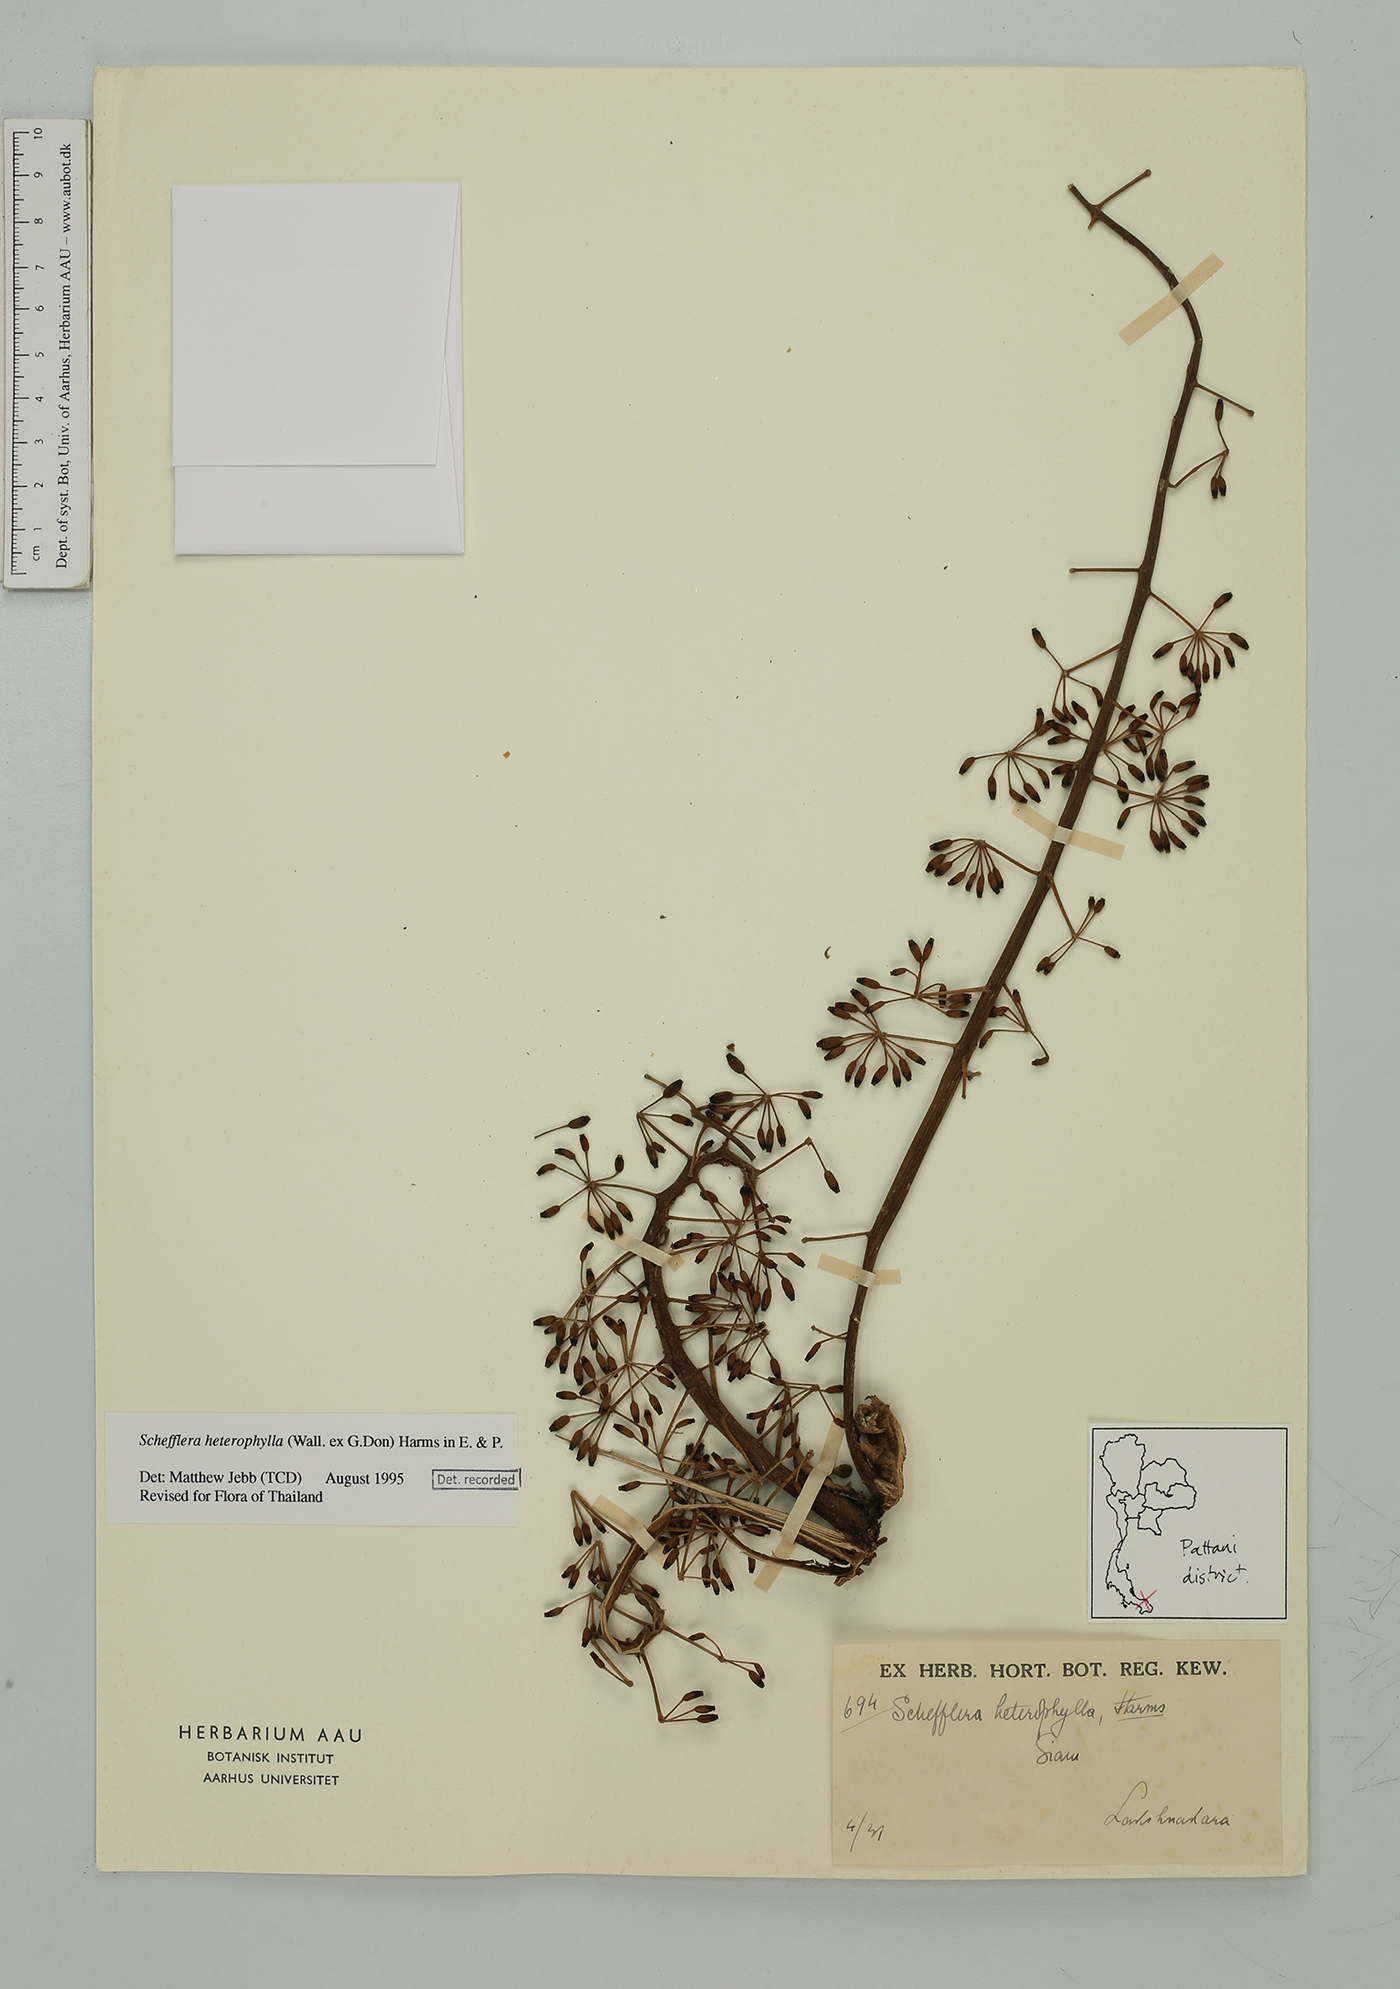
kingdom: Plantae
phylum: Tracheophyta
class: Magnoliopsida
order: Apiales
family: Araliaceae
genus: Heptapleurum
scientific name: Heptapleurum heterophyllum
